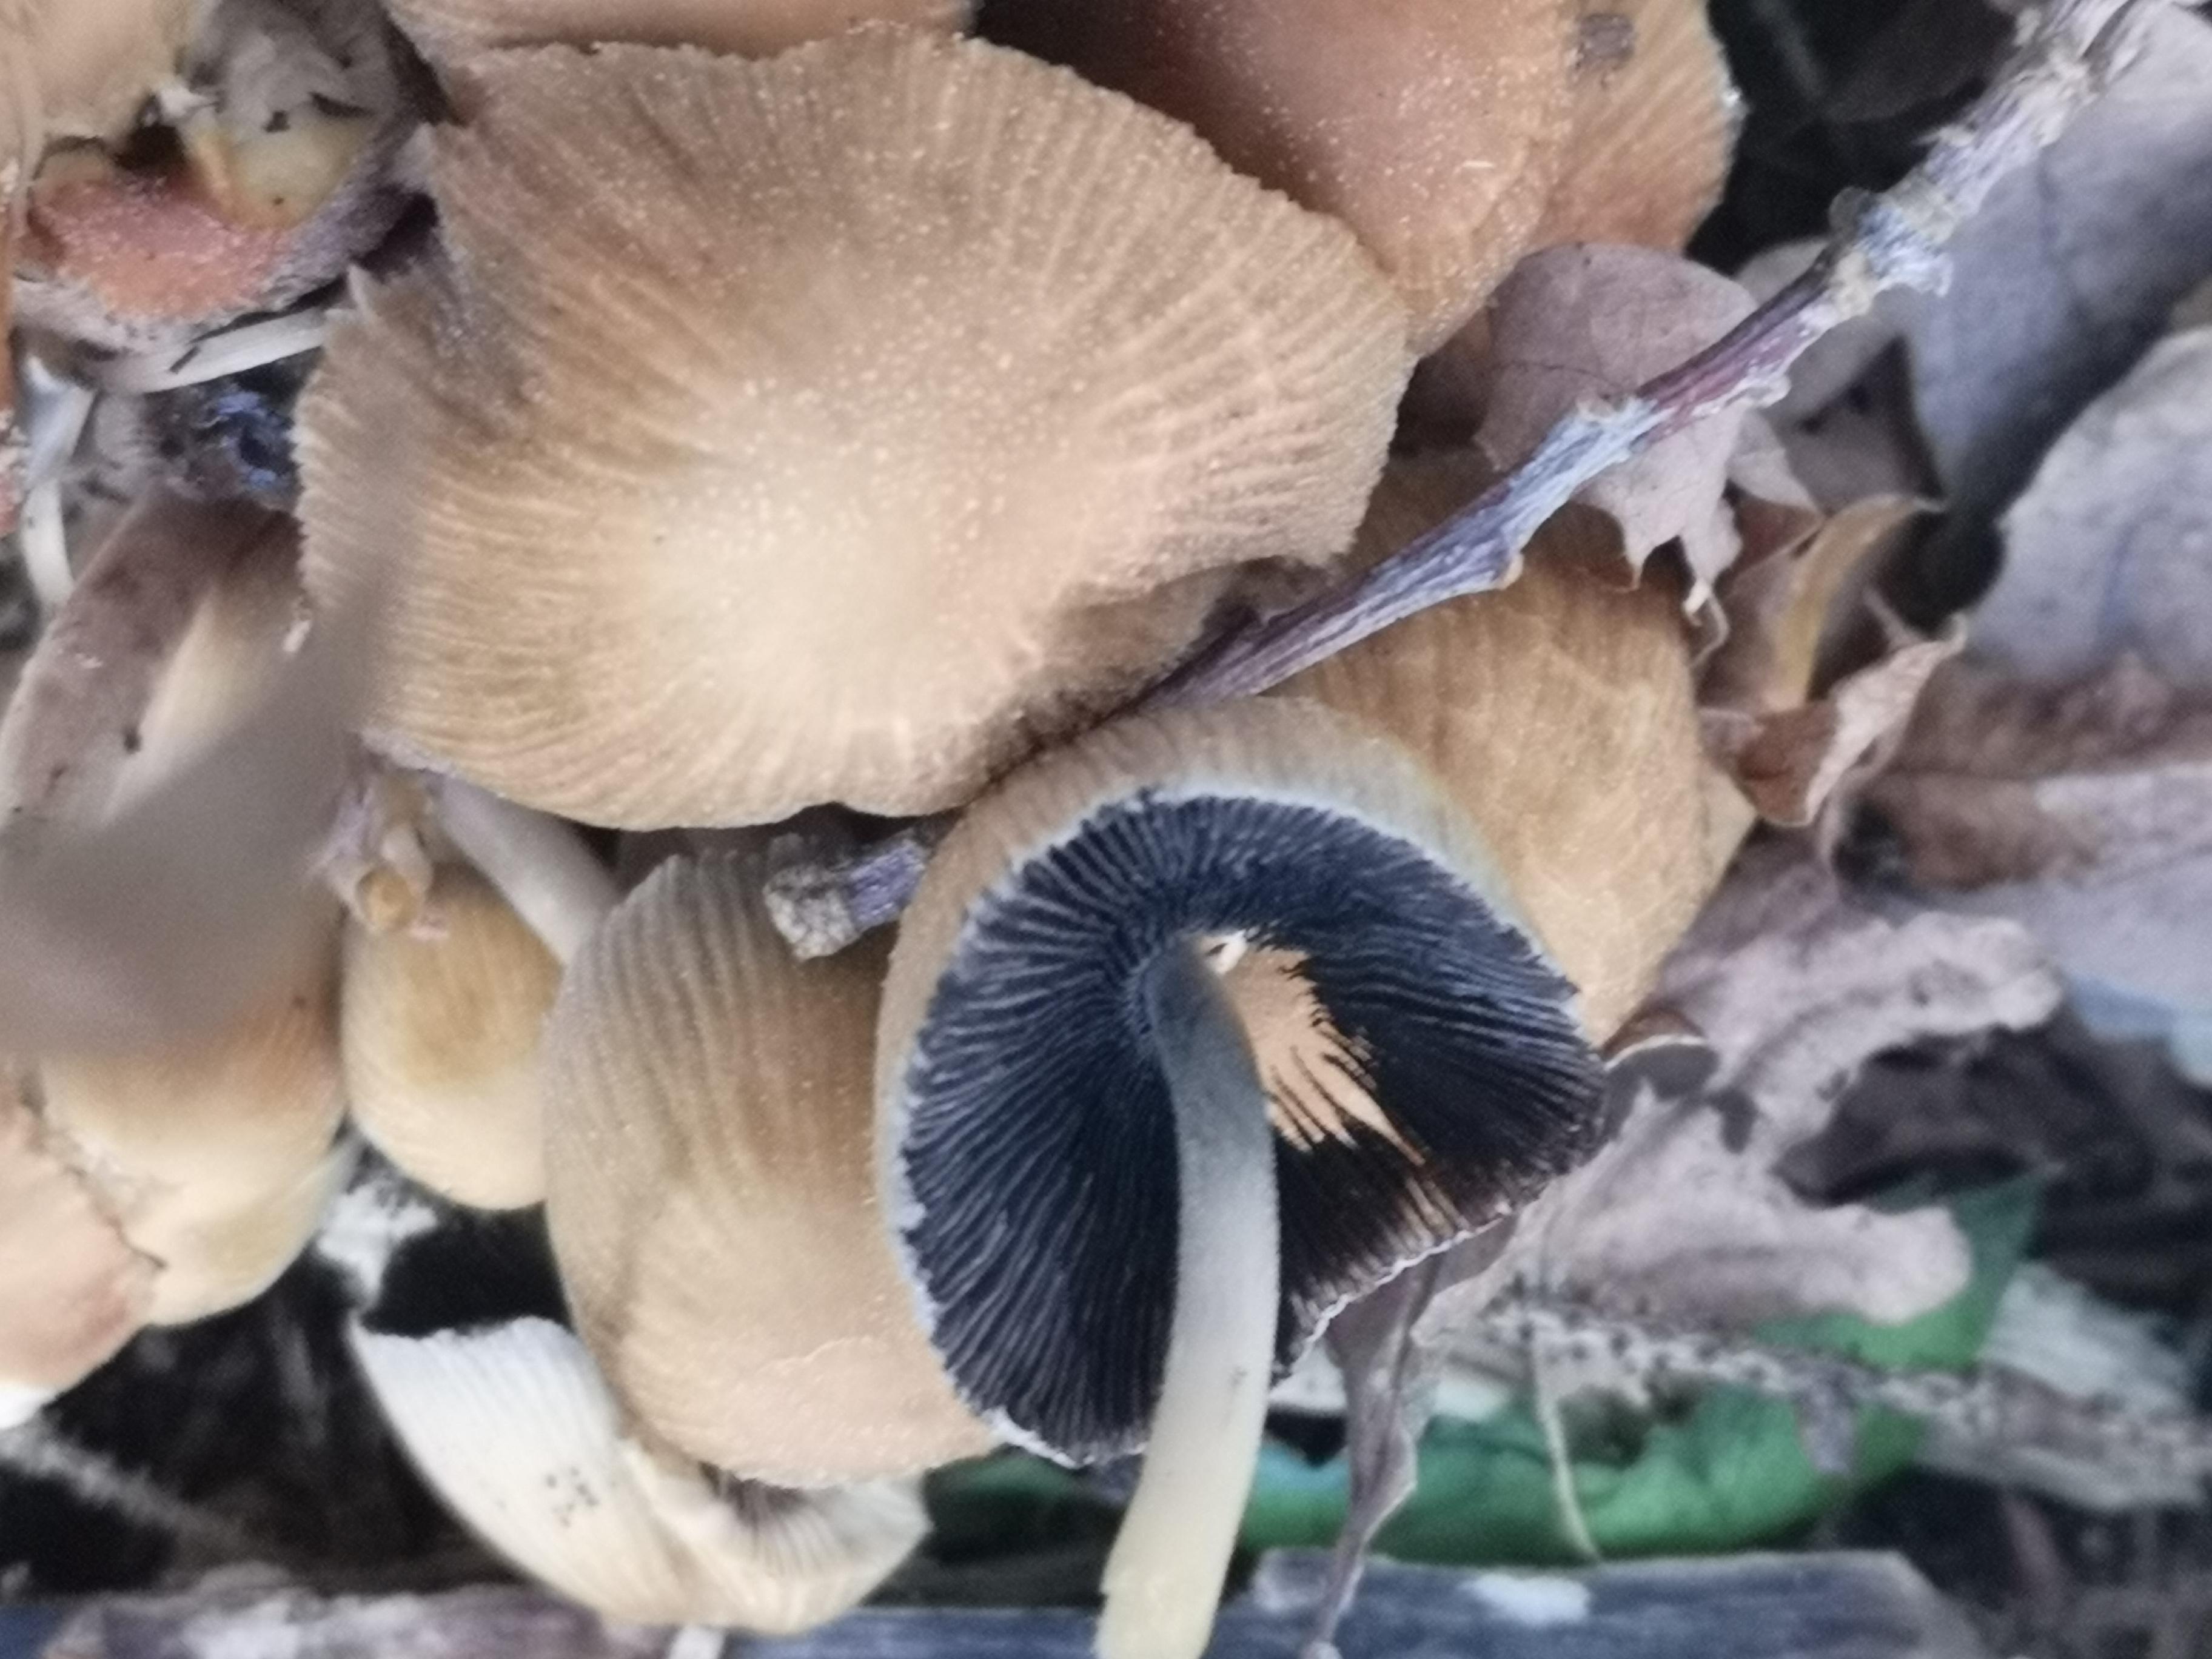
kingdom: Fungi
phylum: Basidiomycota
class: Agaricomycetes
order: Agaricales
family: Psathyrellaceae
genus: Coprinellus
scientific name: Coprinellus micaceus
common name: glimmer-blækhat
